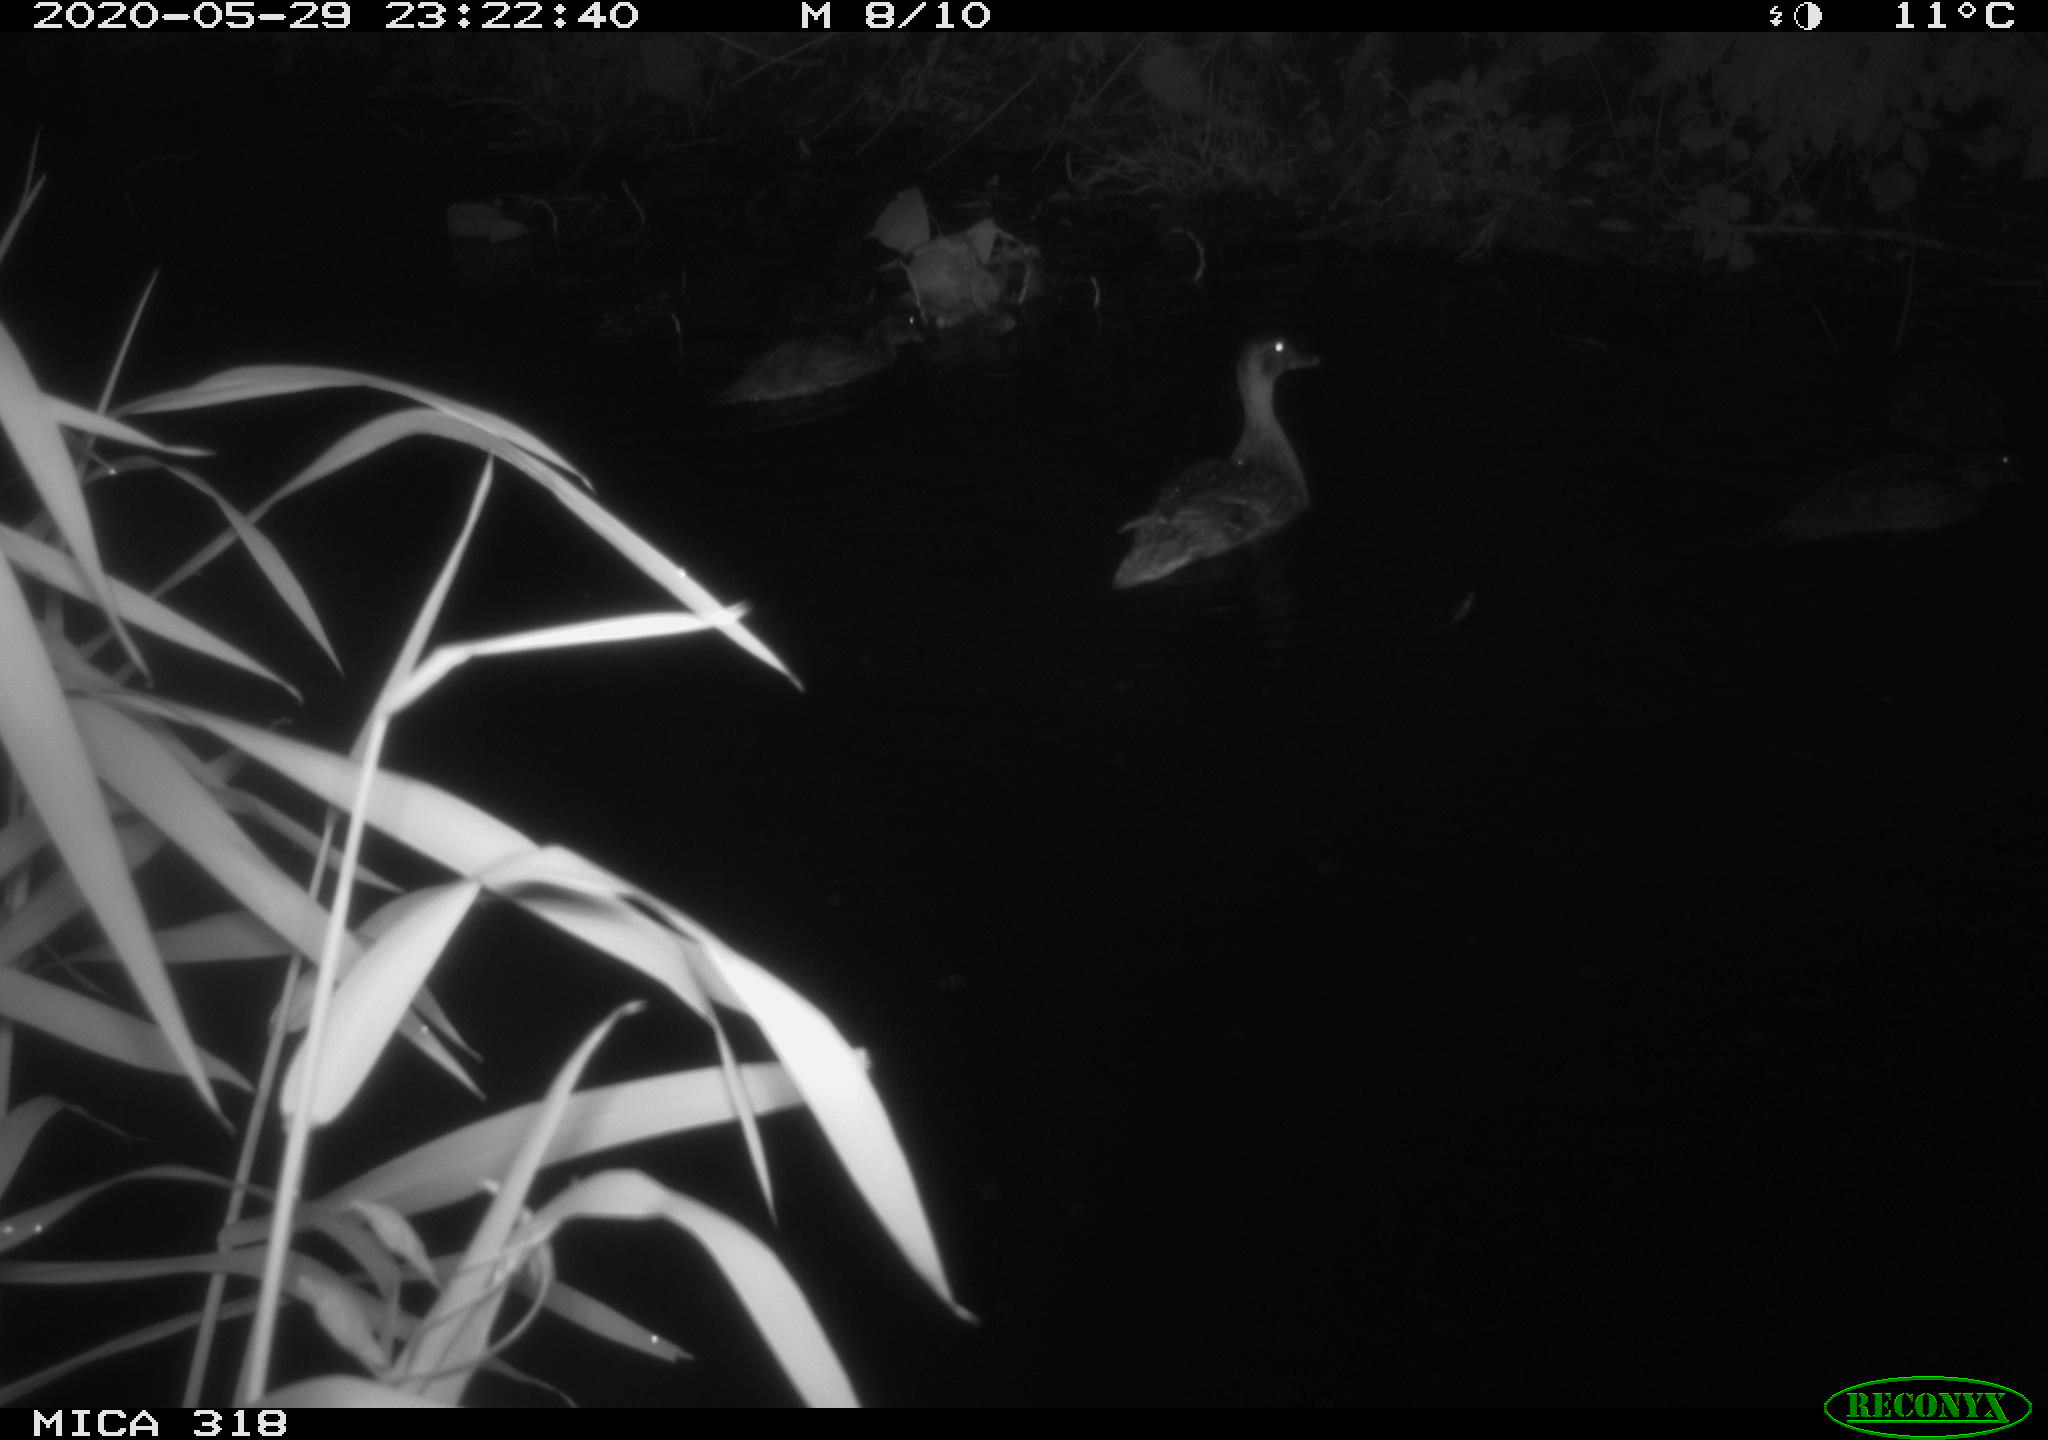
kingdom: Animalia
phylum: Chordata
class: Aves
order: Anseriformes
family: Anatidae
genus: Anas
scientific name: Anas platyrhynchos
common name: Mallard
